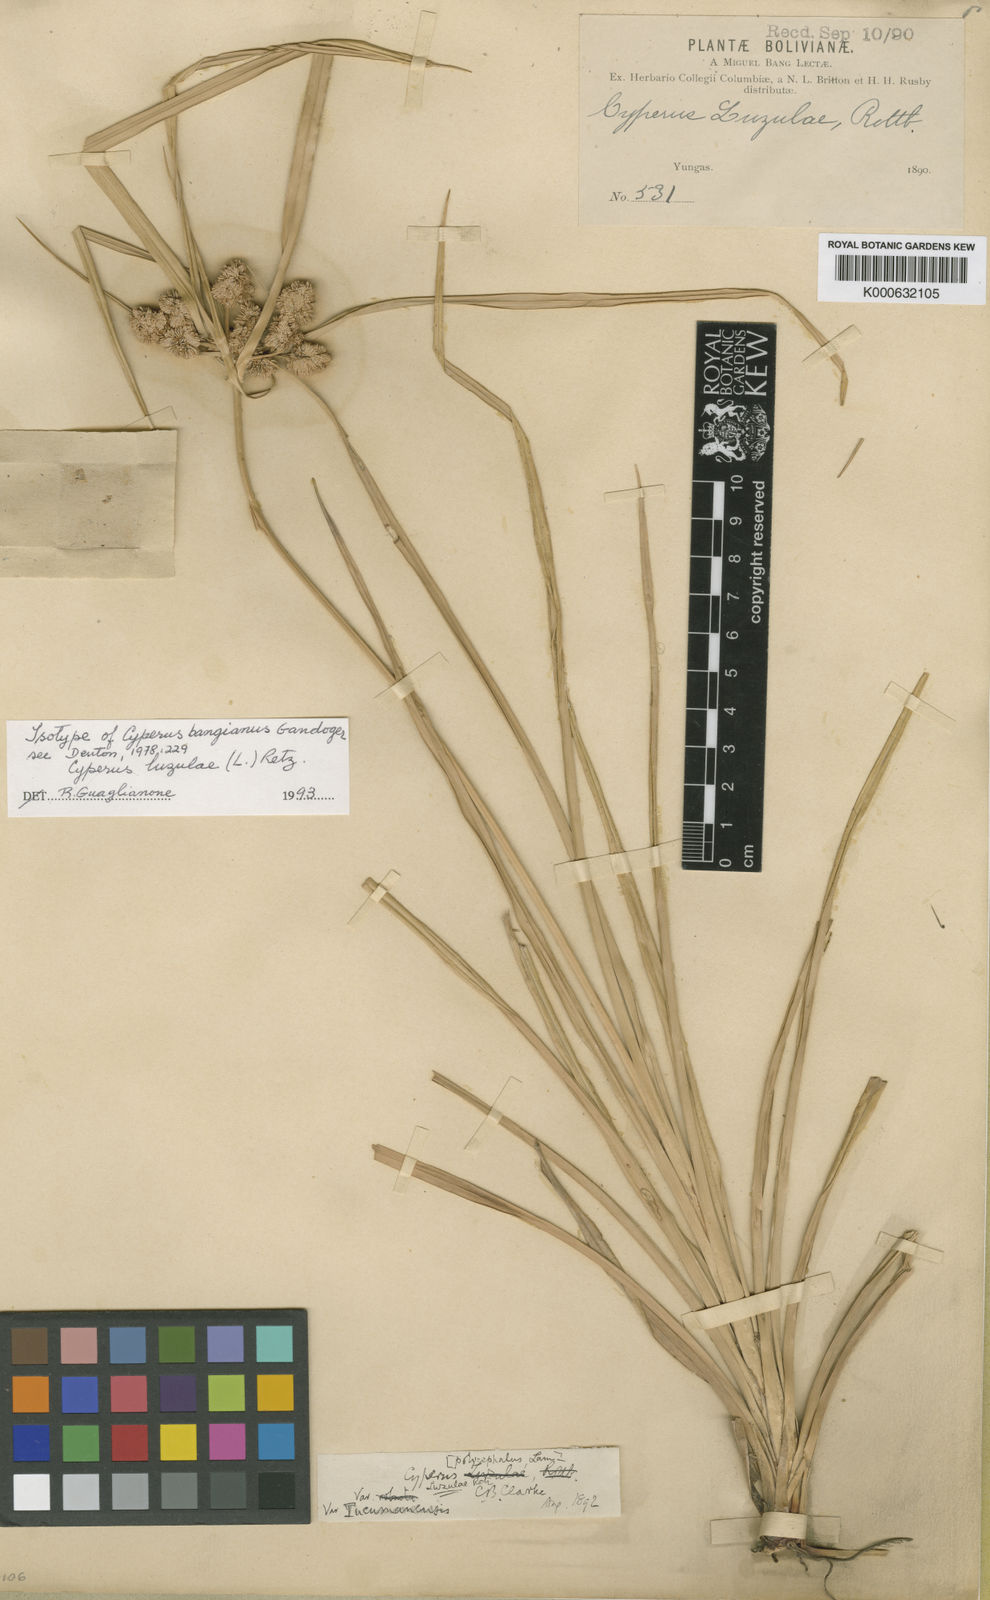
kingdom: Plantae
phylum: Tracheophyta
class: Liliopsida
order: Poales
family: Cyperaceae
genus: Cyperus
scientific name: Cyperus luzulae
